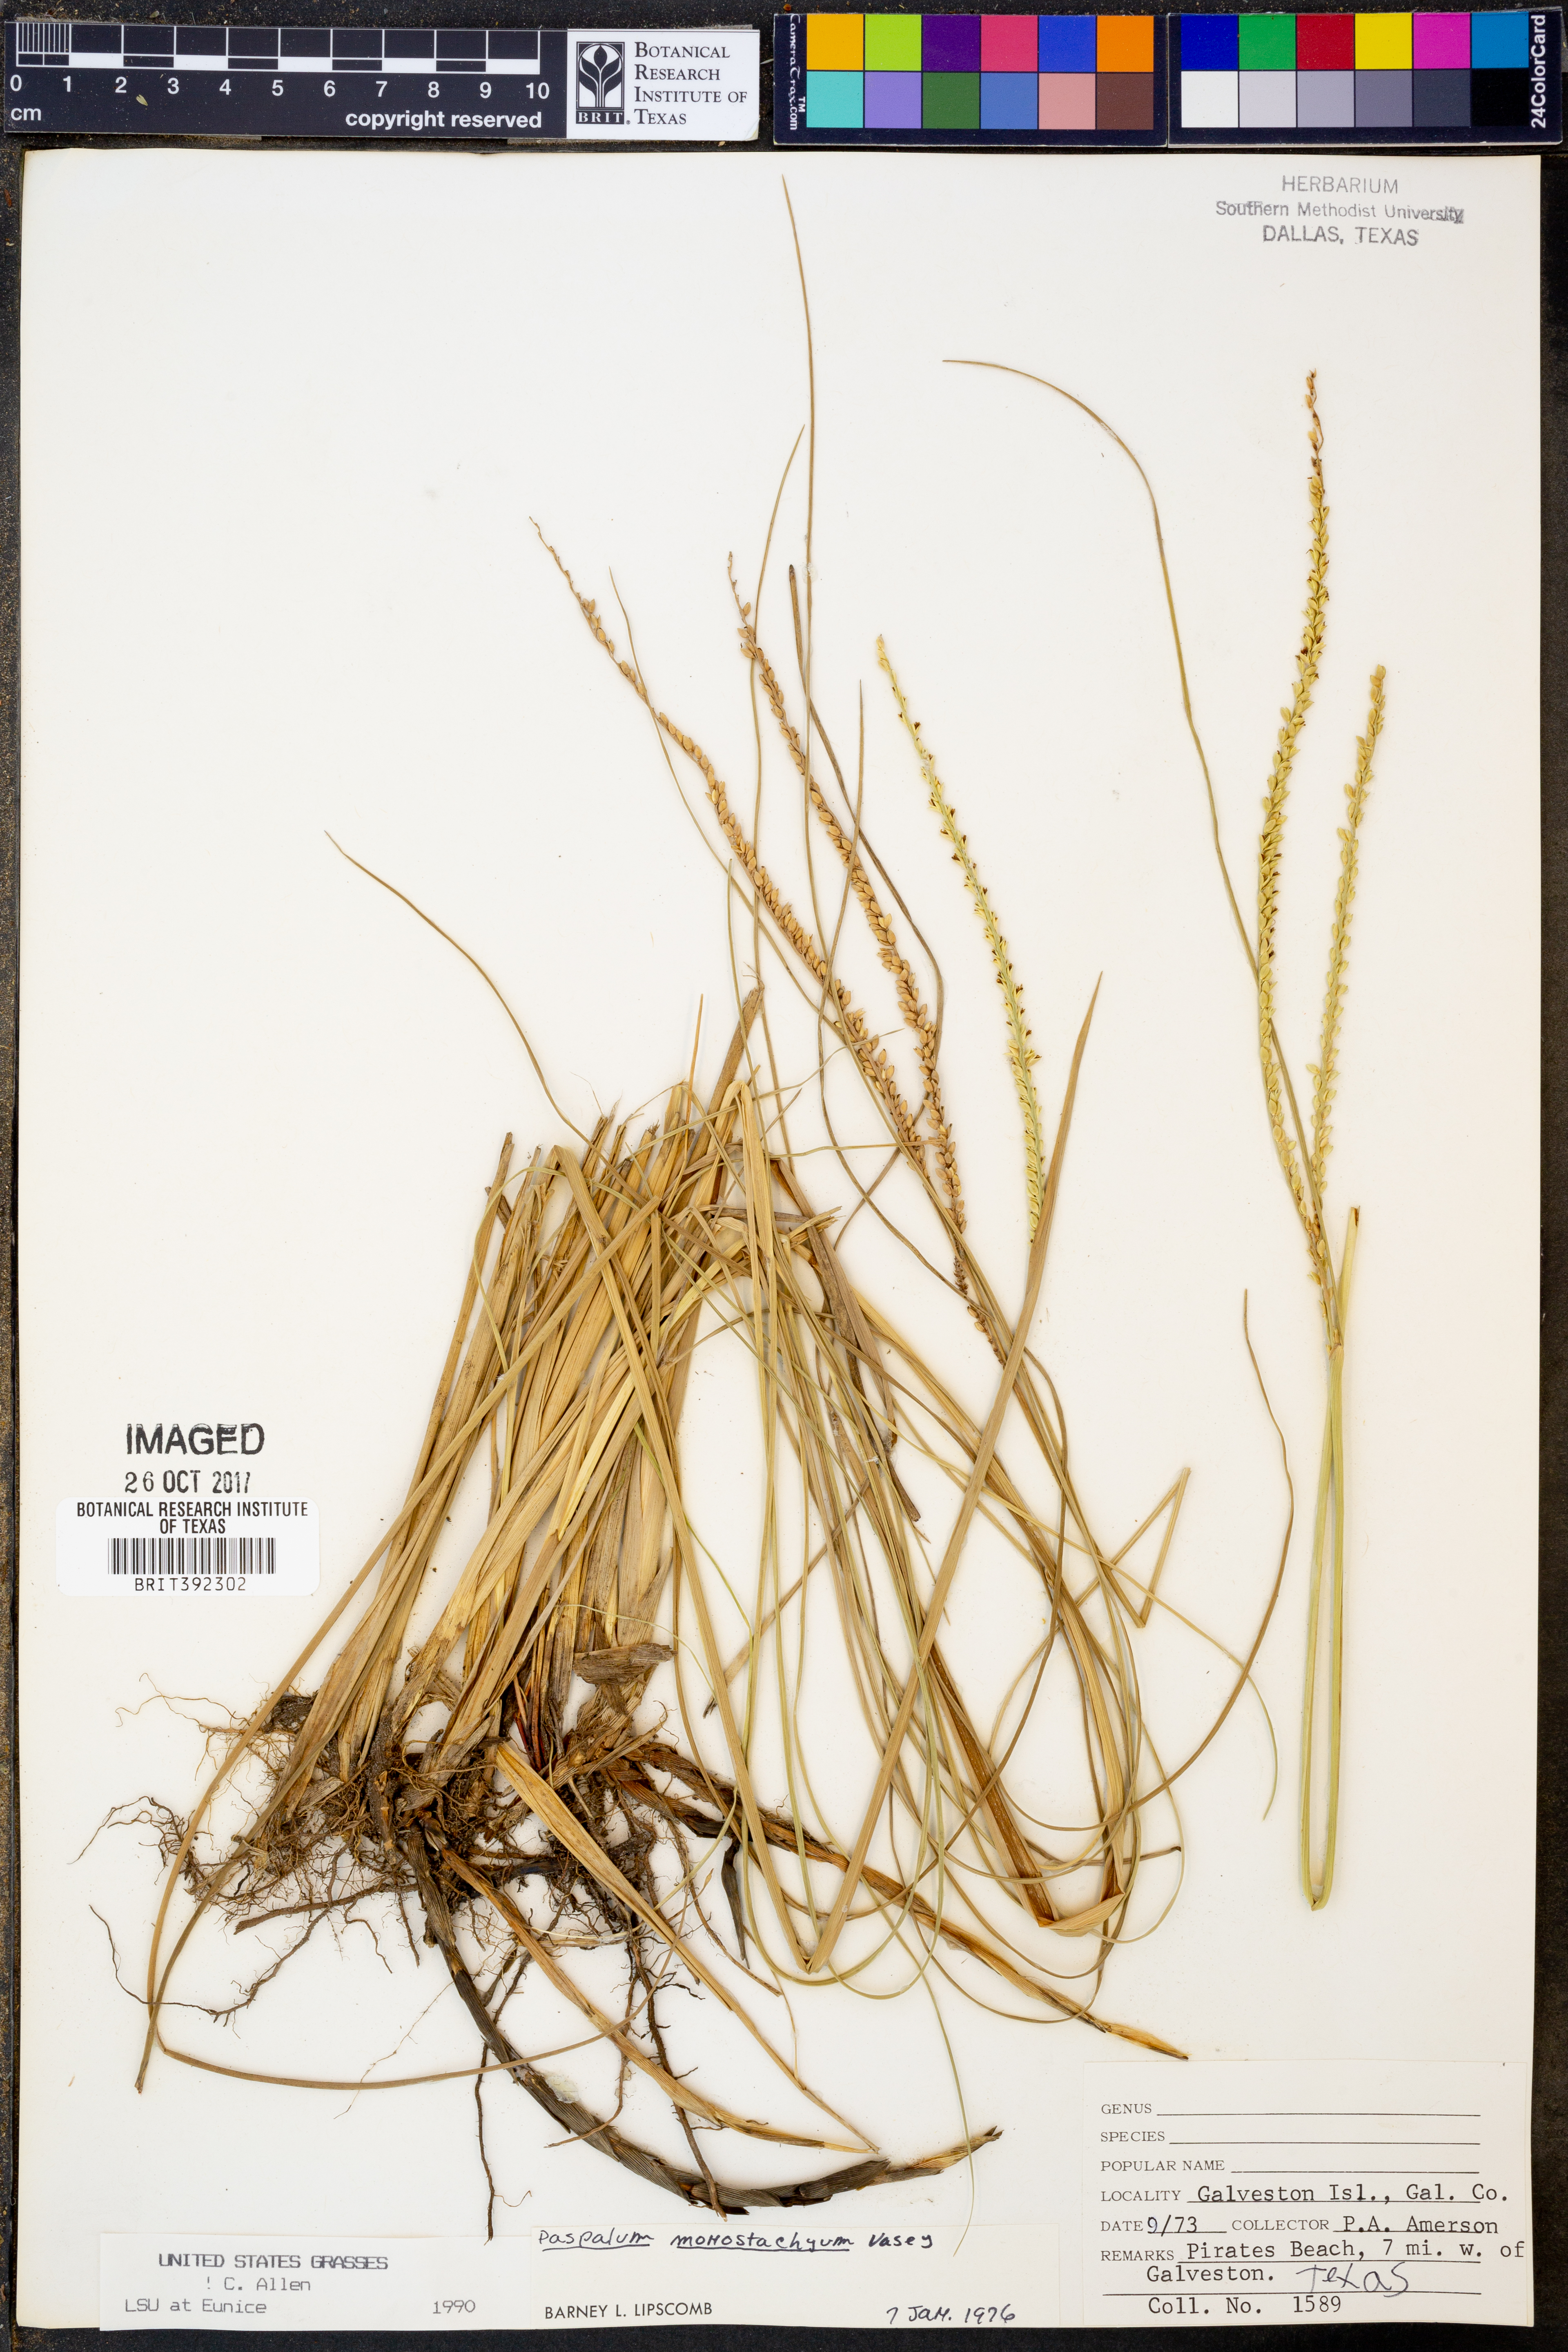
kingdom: Plantae
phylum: Tracheophyta
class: Liliopsida
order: Poales
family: Poaceae
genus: Paspalum
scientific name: Paspalum monostachyum
